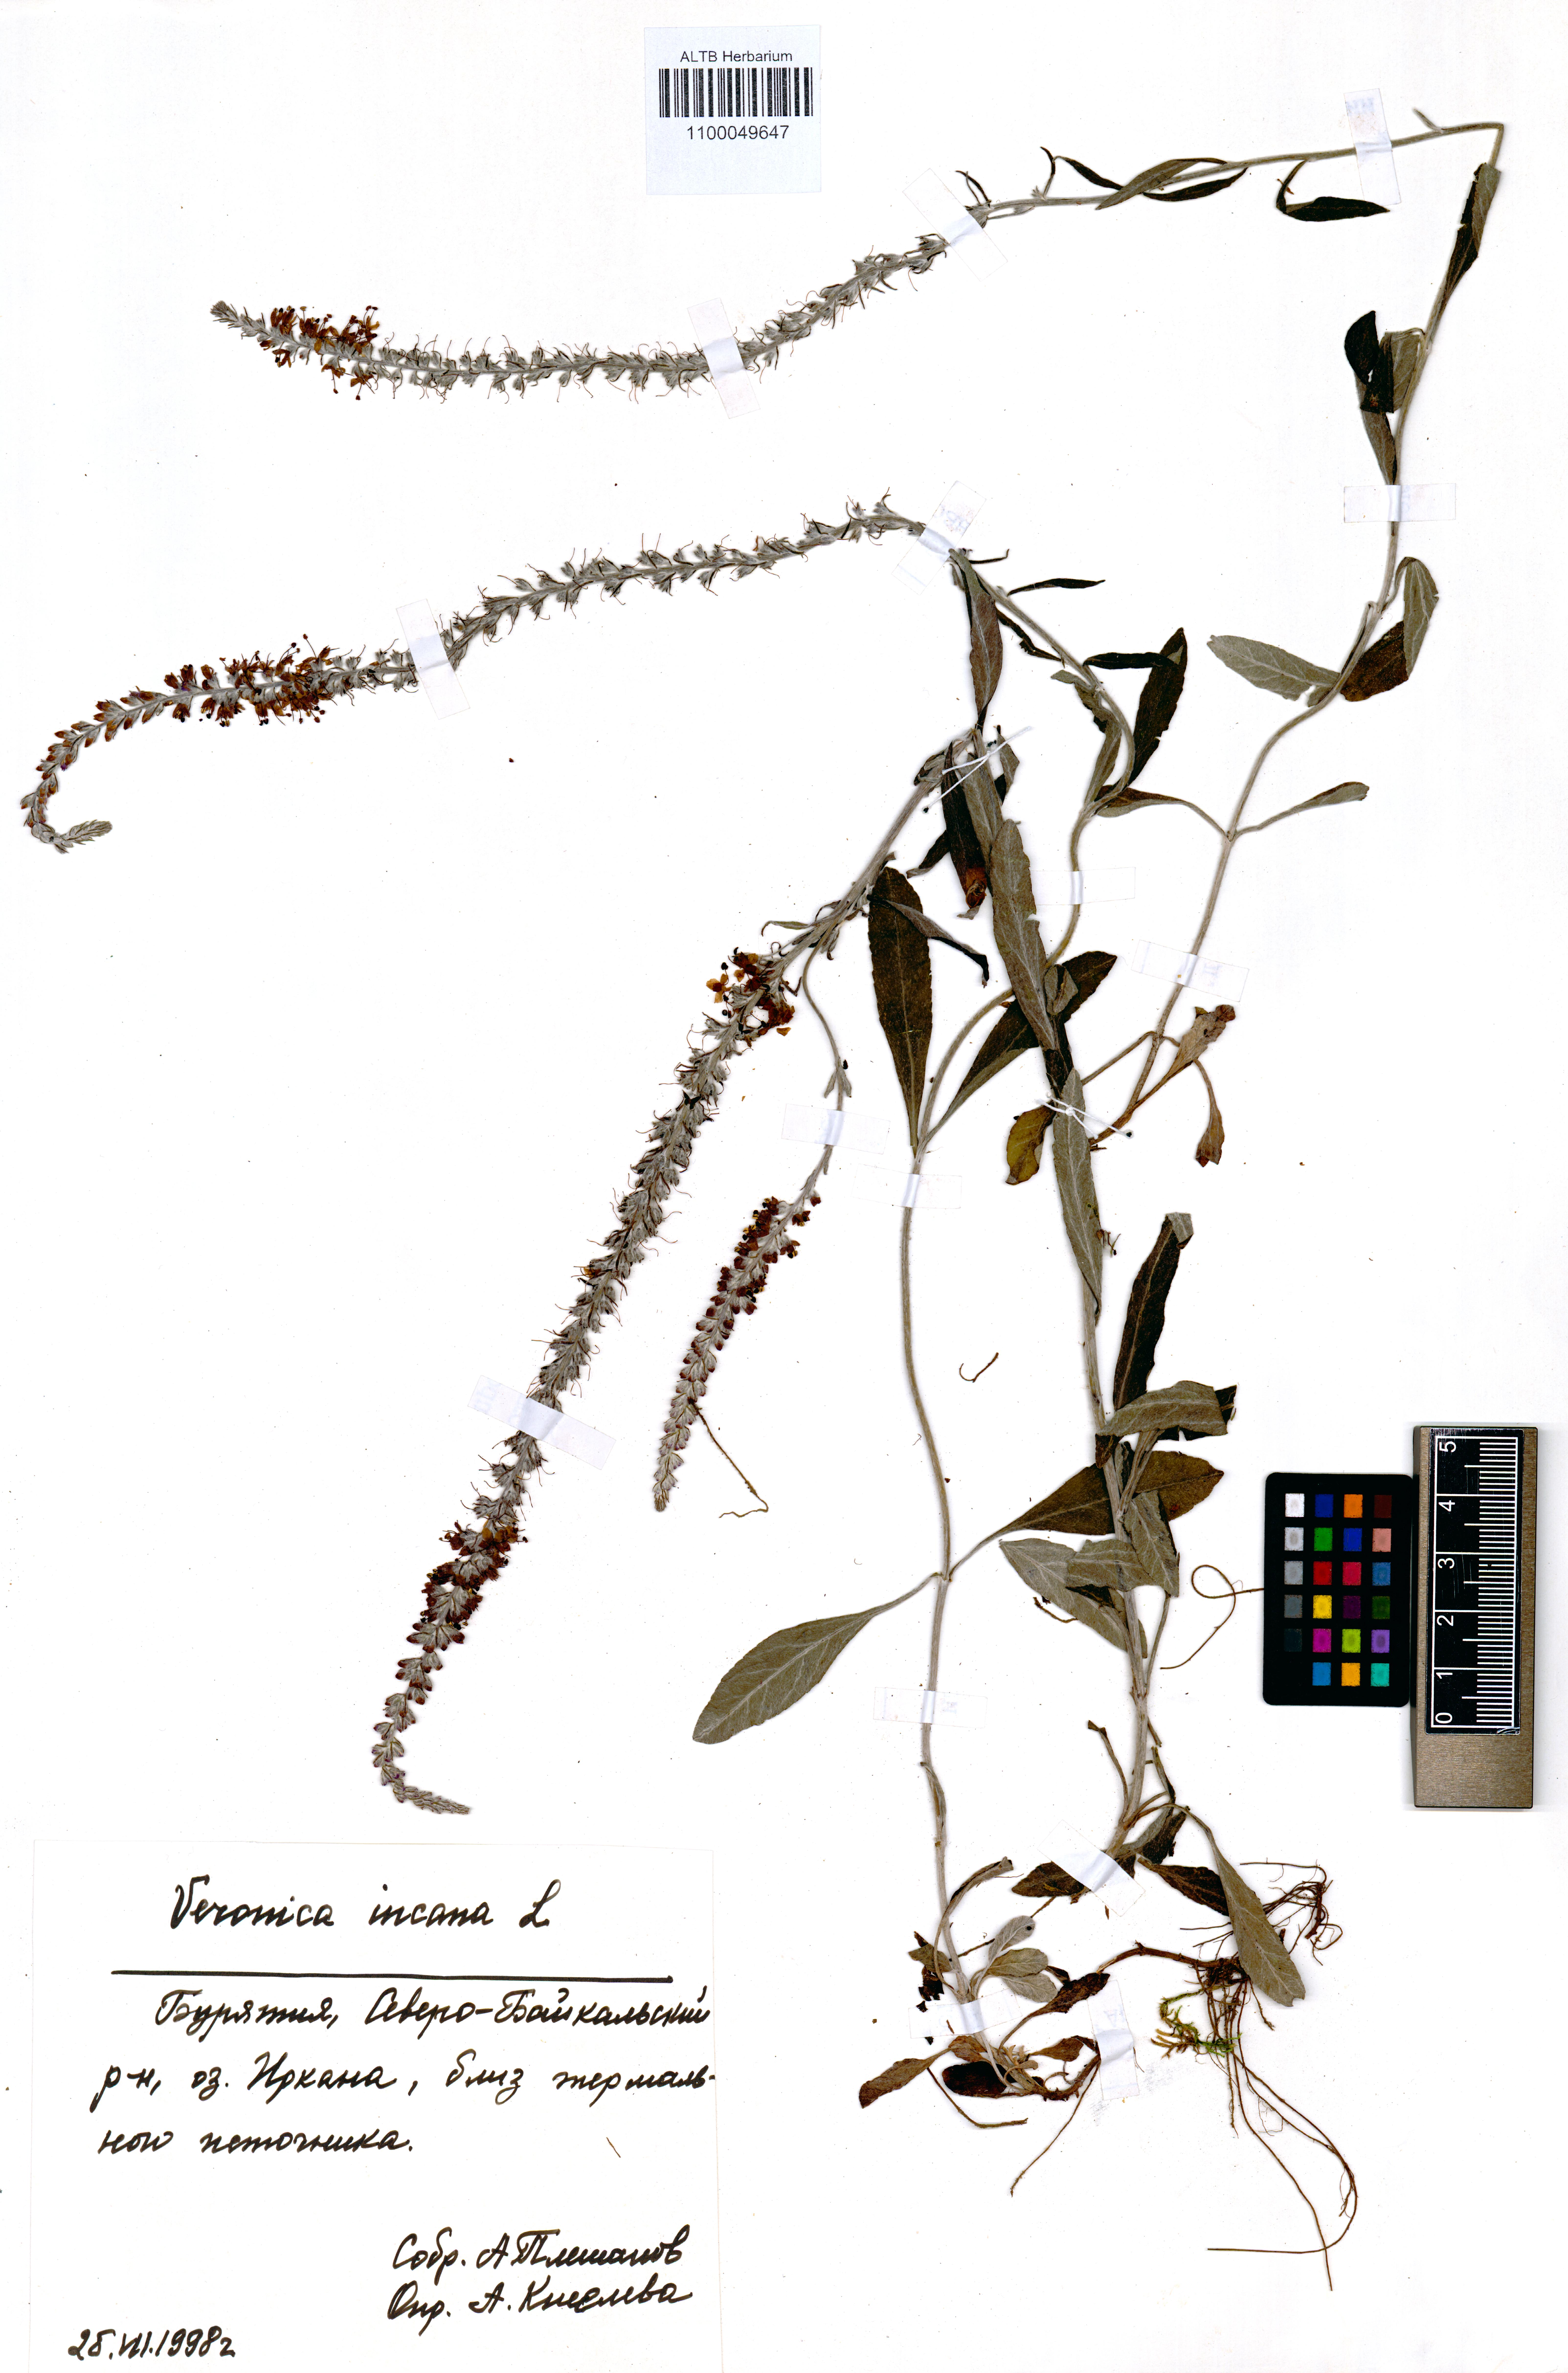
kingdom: Plantae
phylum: Tracheophyta
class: Magnoliopsida
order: Lamiales
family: Plantaginaceae
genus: Veronica
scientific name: Veronica incana
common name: Silver speedwell
